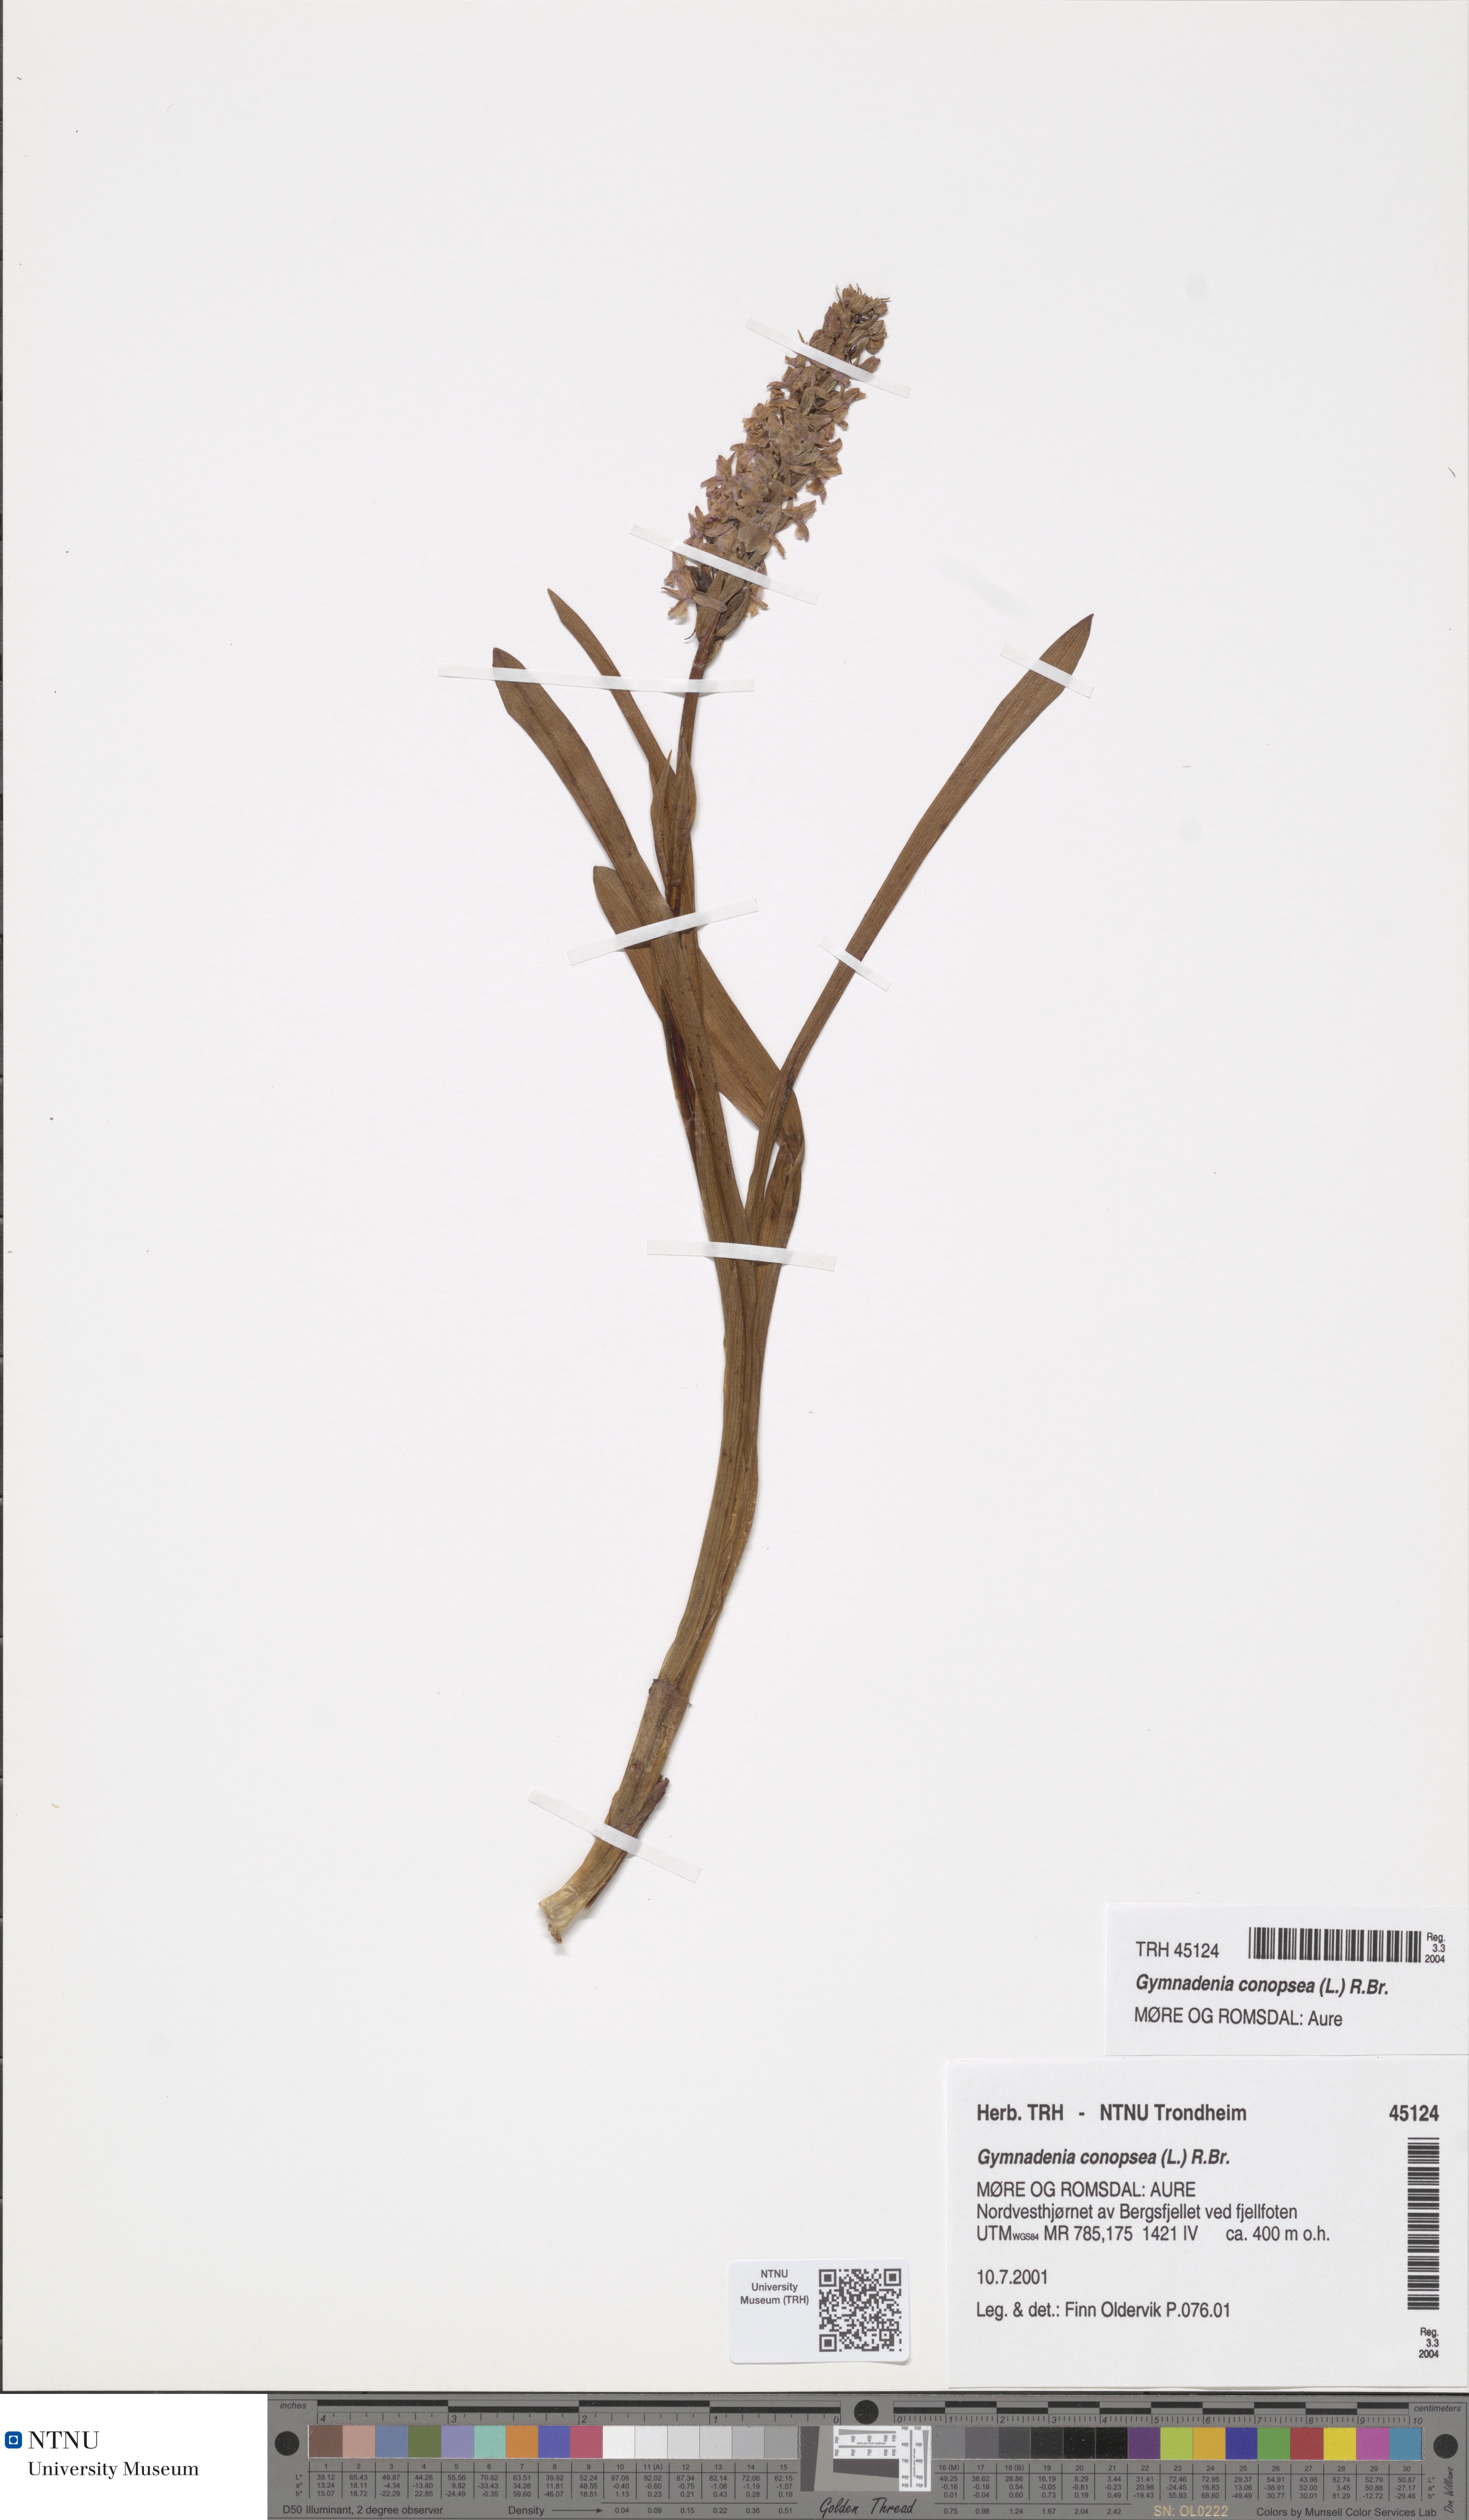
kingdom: Plantae
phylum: Tracheophyta
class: Liliopsida
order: Asparagales
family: Orchidaceae
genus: Gymnadenia
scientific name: Gymnadenia densiflora
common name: Marsh fragrant-orchid
